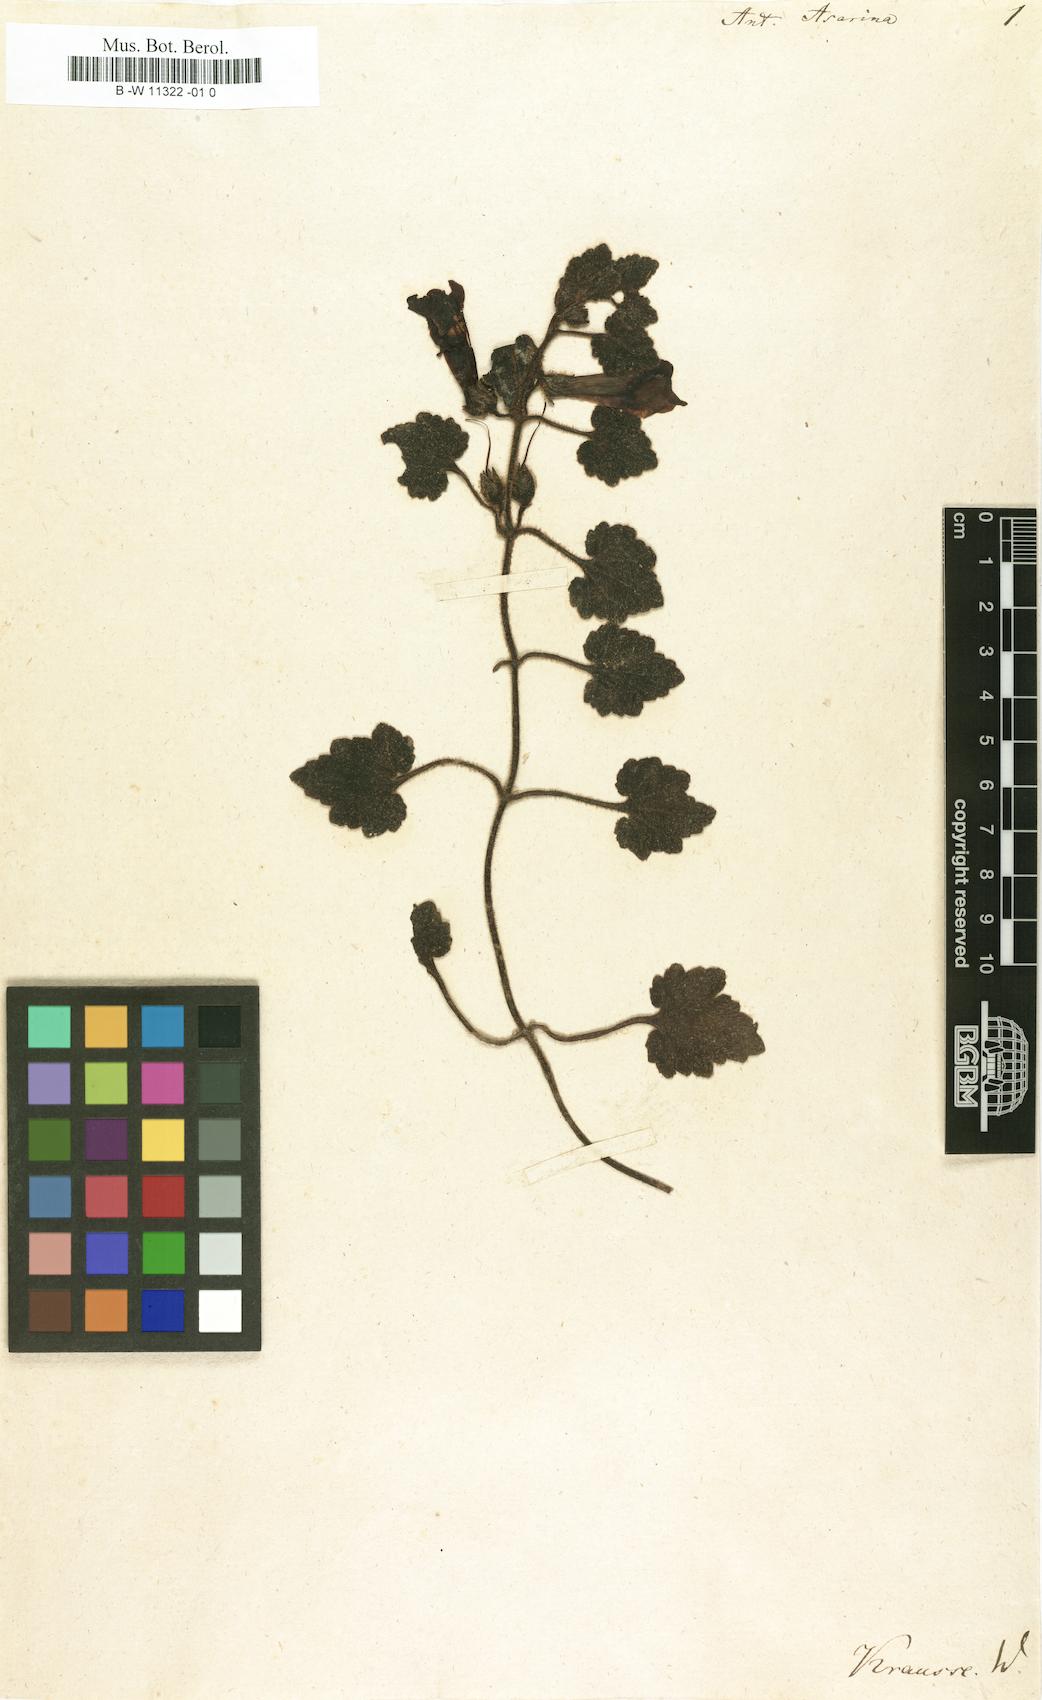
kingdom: Plantae
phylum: Tracheophyta
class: Magnoliopsida
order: Lamiales
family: Plantaginaceae
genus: Asarina
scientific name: Asarina procumbens
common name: Trailing snapdragon
